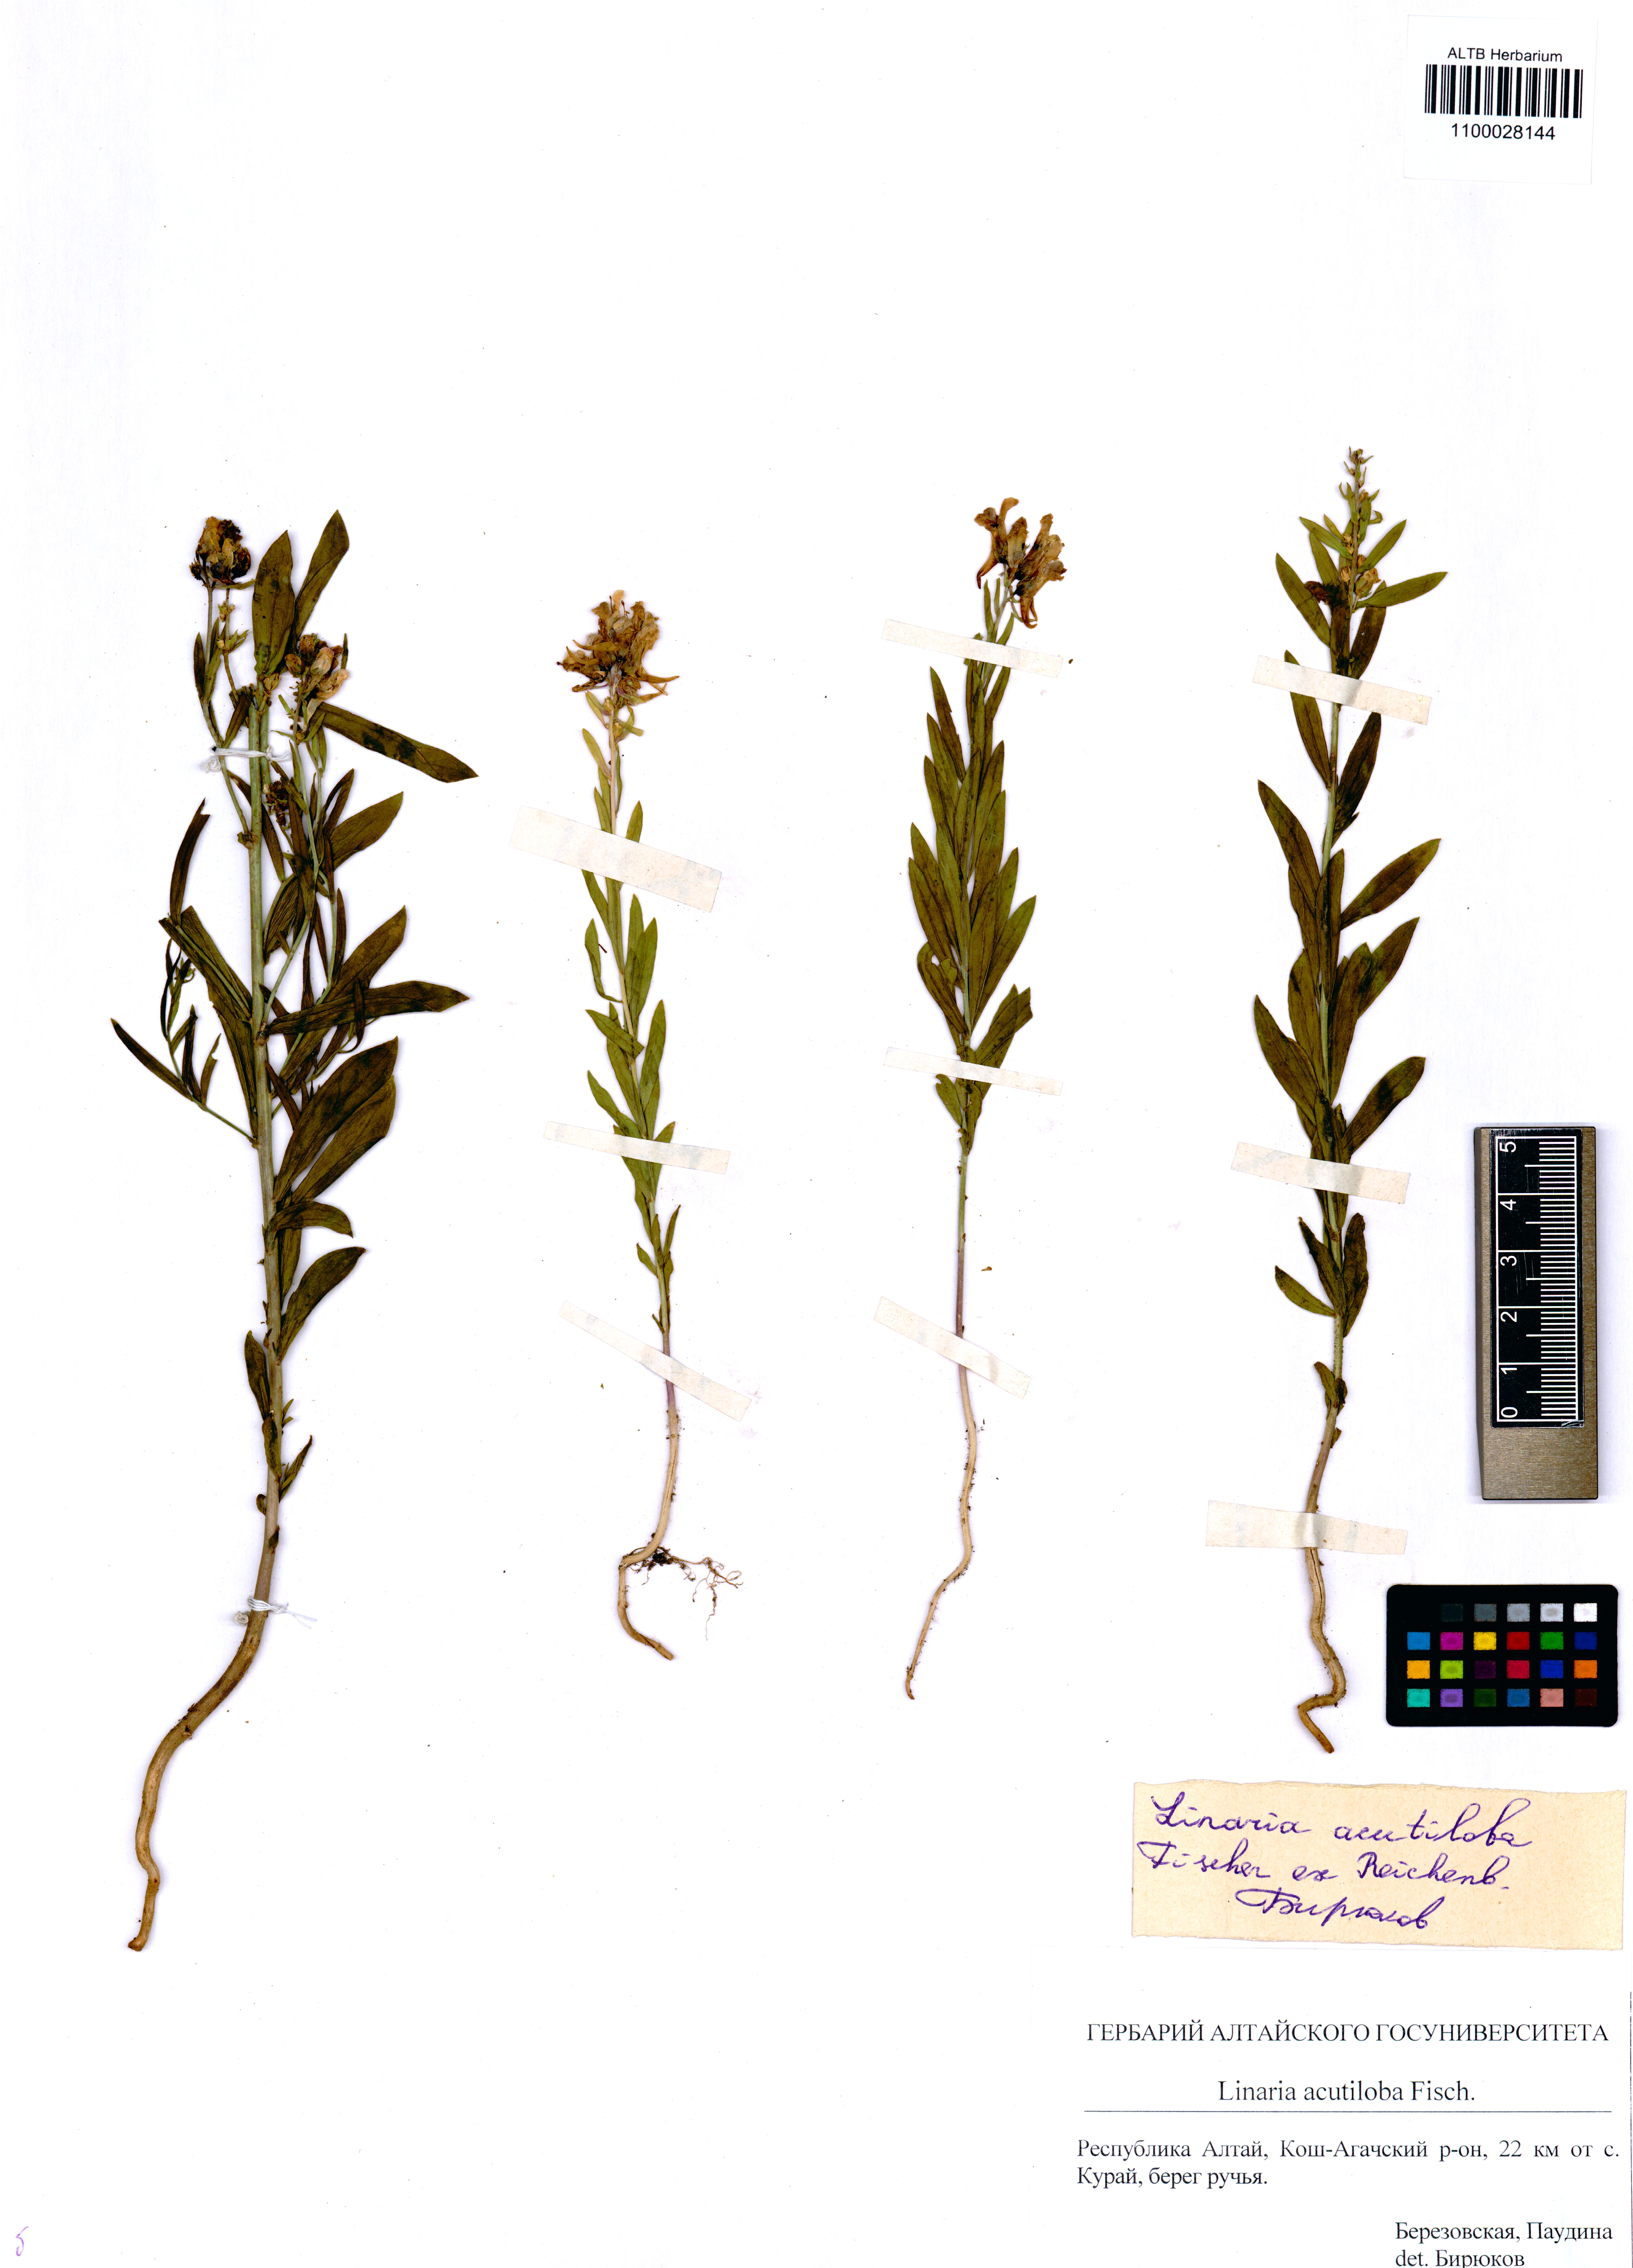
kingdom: Plantae
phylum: Tracheophyta
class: Magnoliopsida
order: Lamiales
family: Plantaginaceae
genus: Linaria
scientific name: Linaria acutiloba
